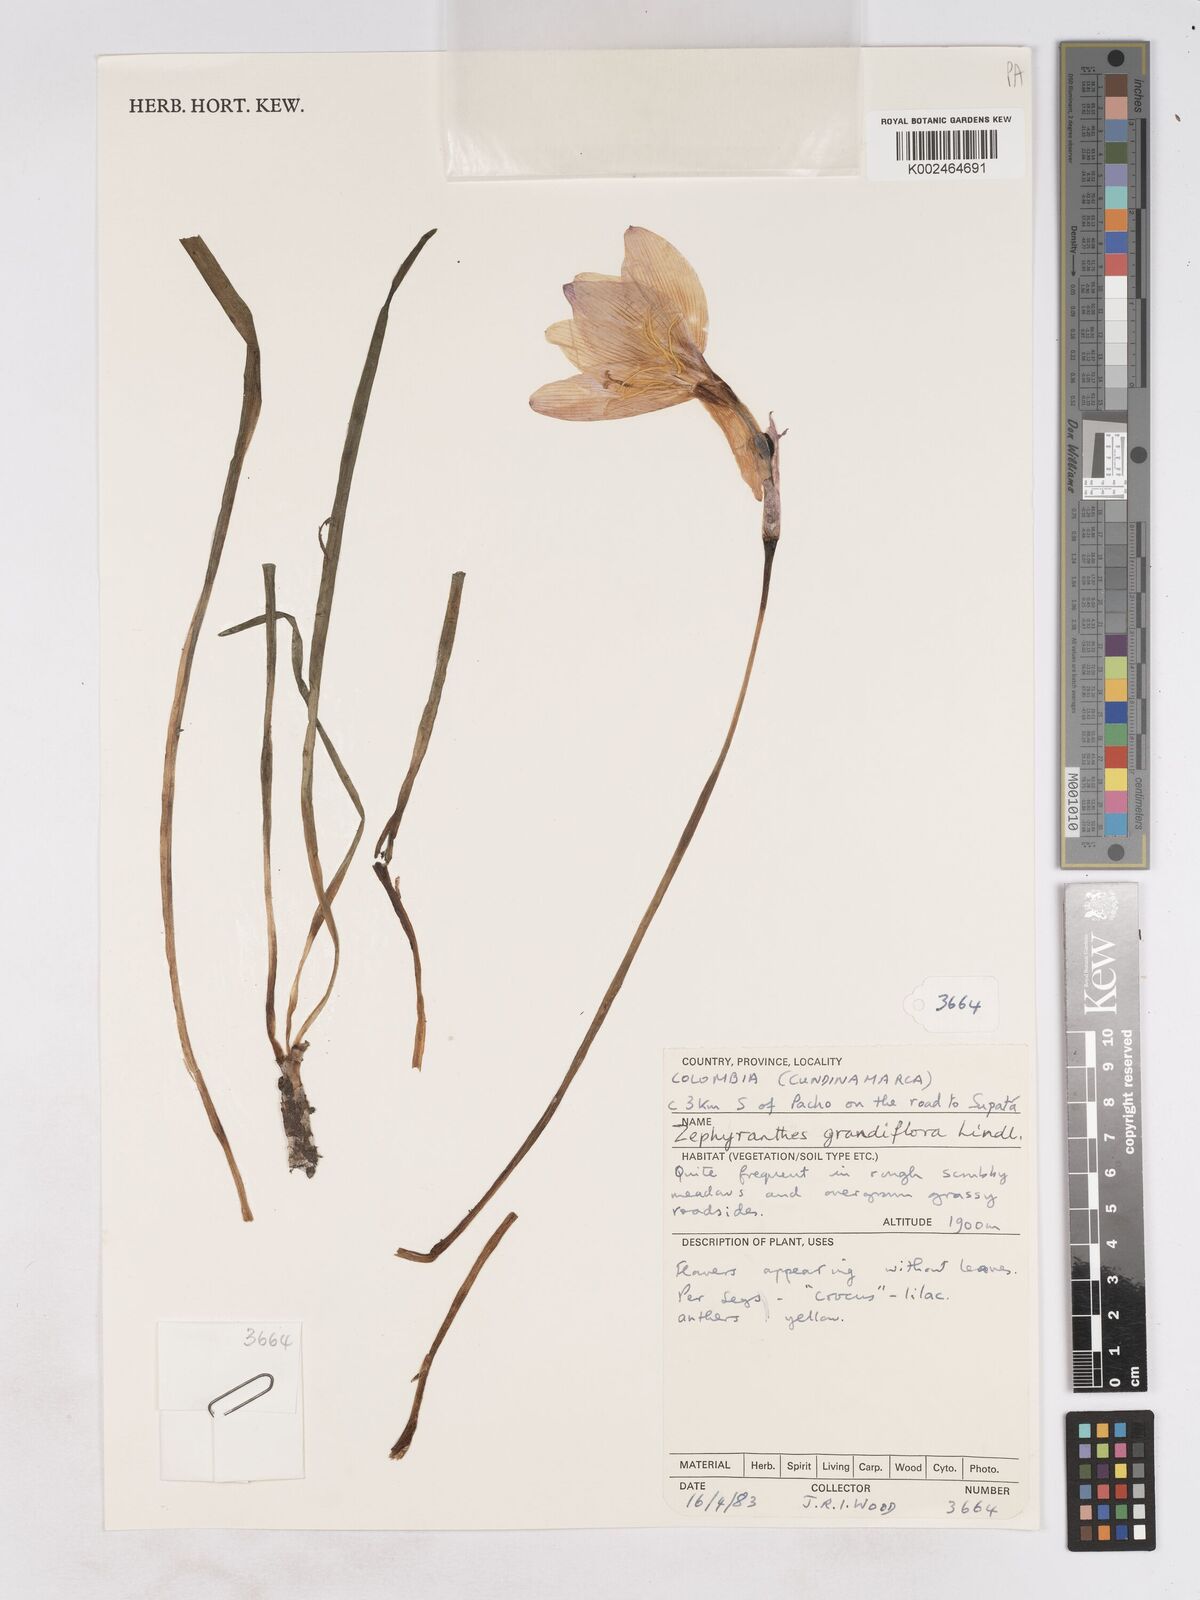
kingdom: Plantae
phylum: Tracheophyta
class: Liliopsida
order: Asparagales
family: Amaryllidaceae
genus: Zephyranthes
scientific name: Zephyranthes minuta
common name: Pink rain lily
